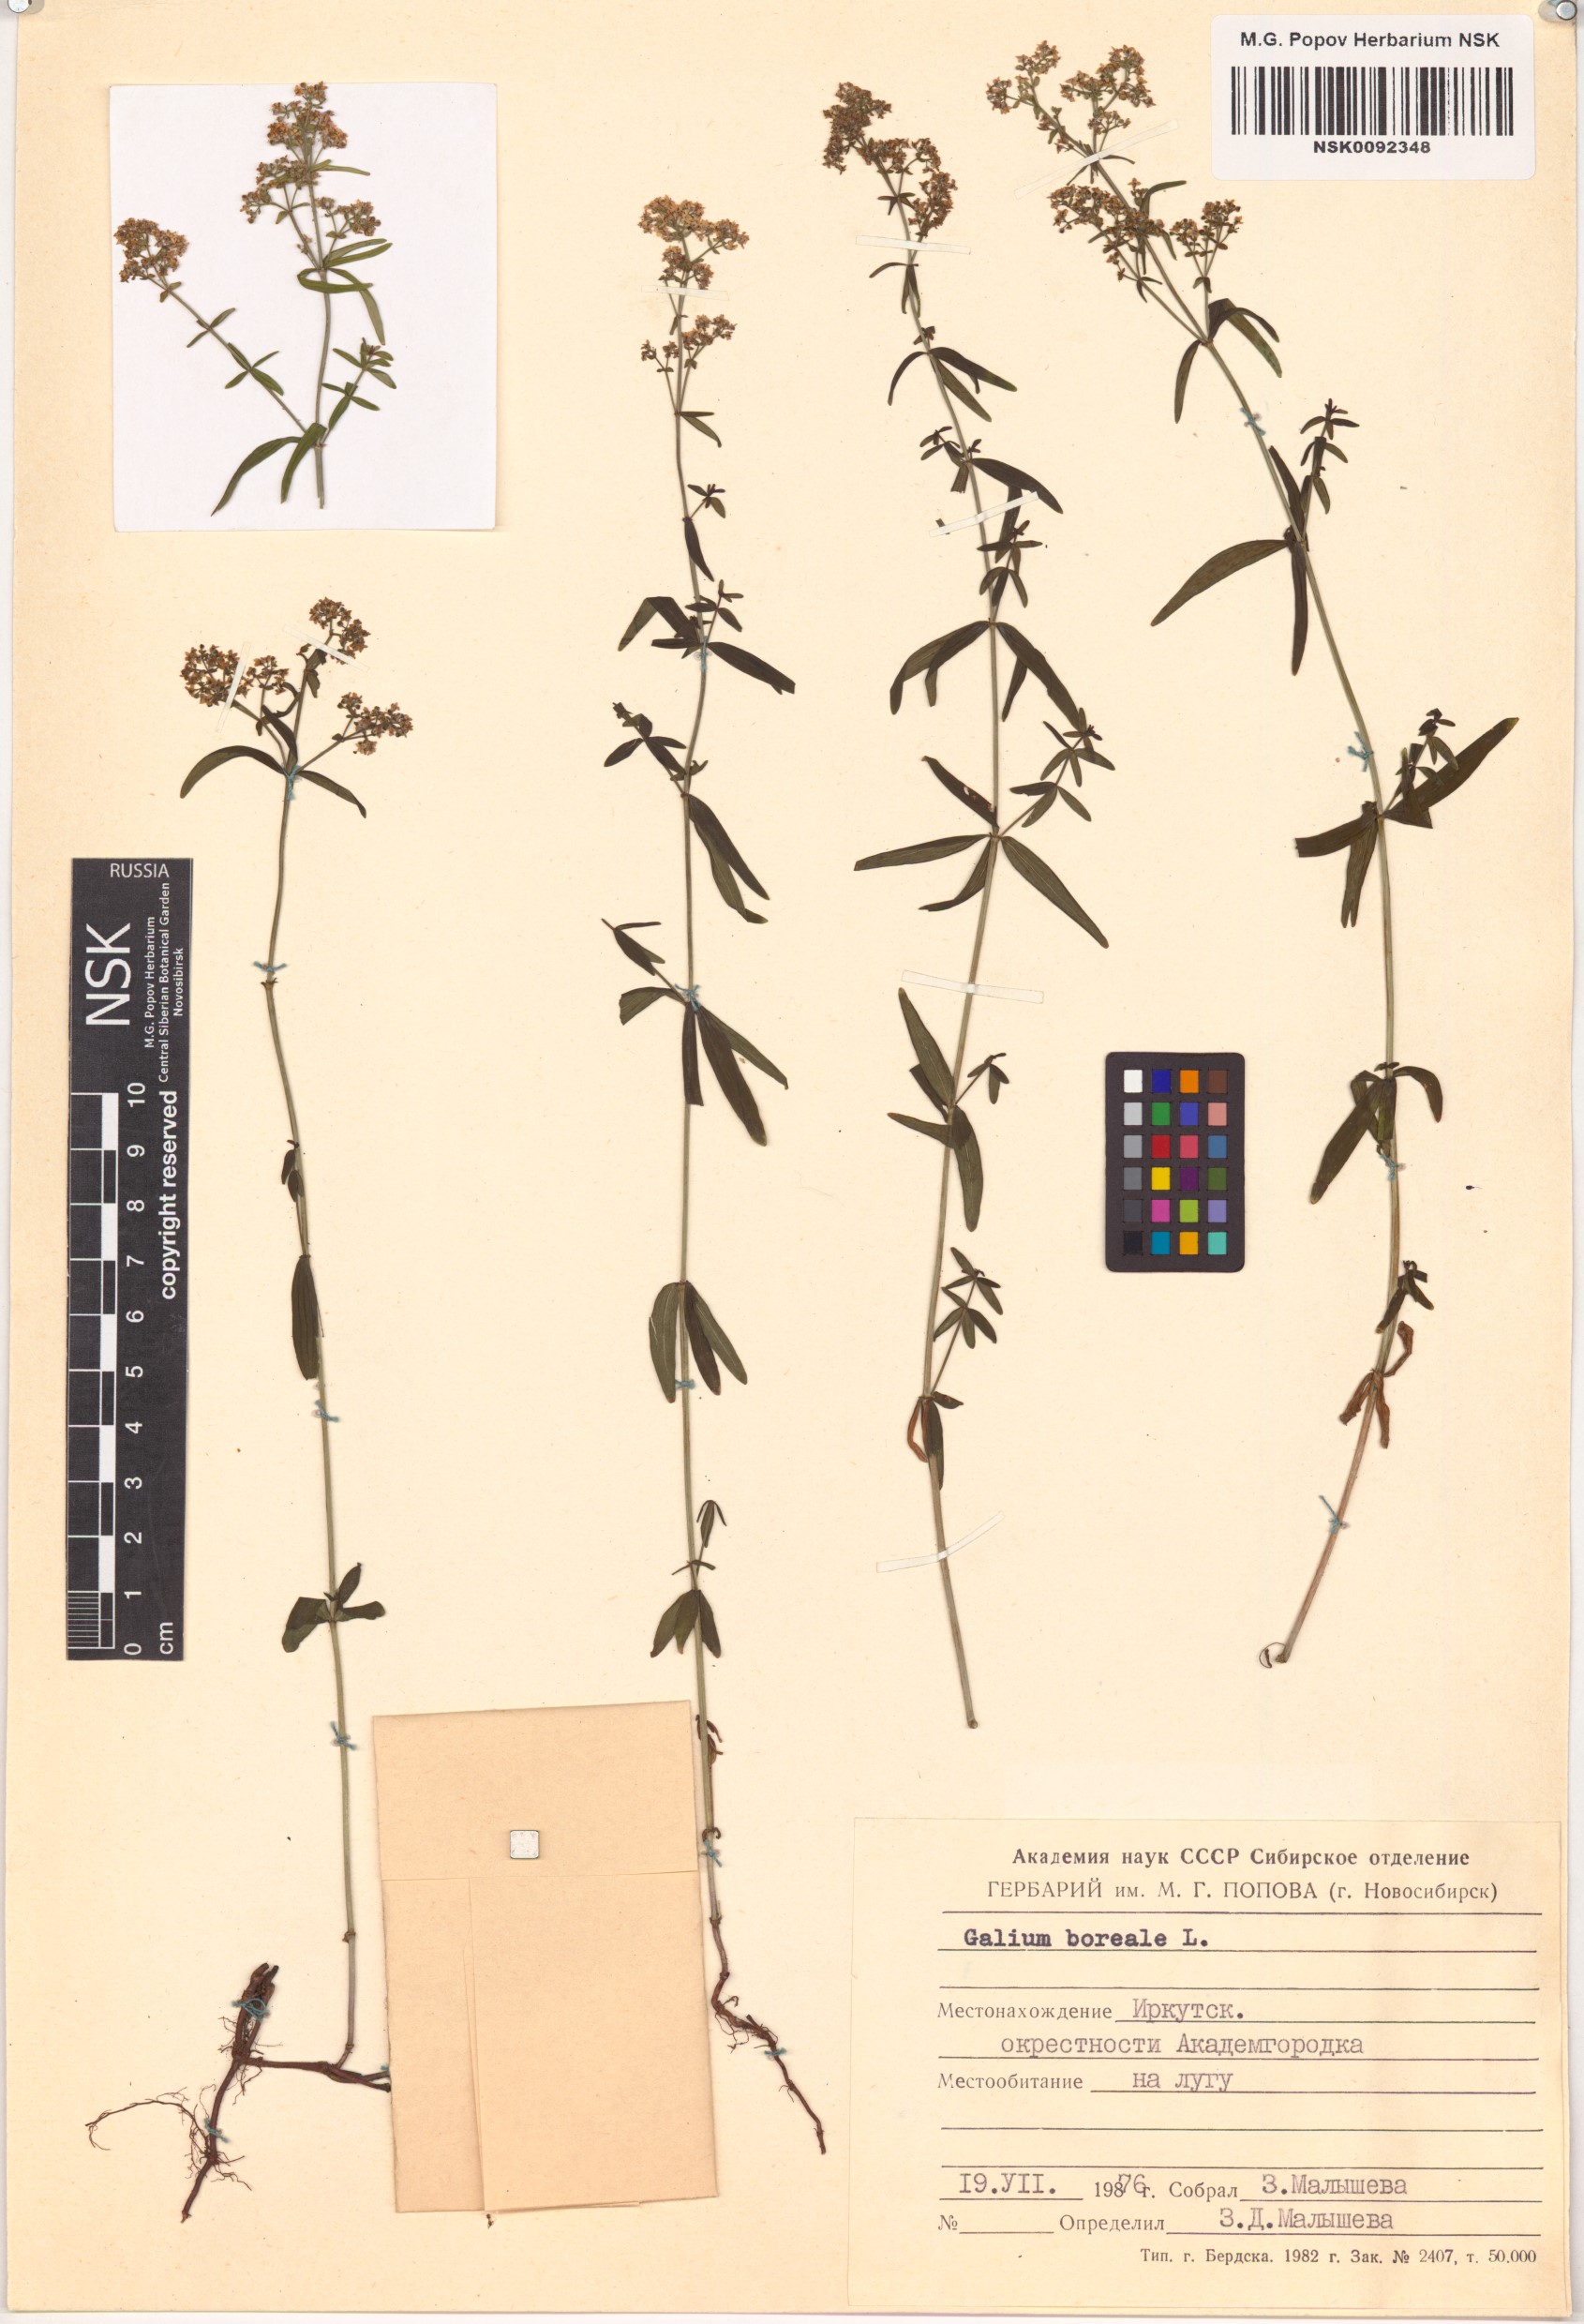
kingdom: Plantae
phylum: Tracheophyta
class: Magnoliopsida
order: Gentianales
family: Rubiaceae
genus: Galium
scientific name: Galium boreale
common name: Northern bedstraw
